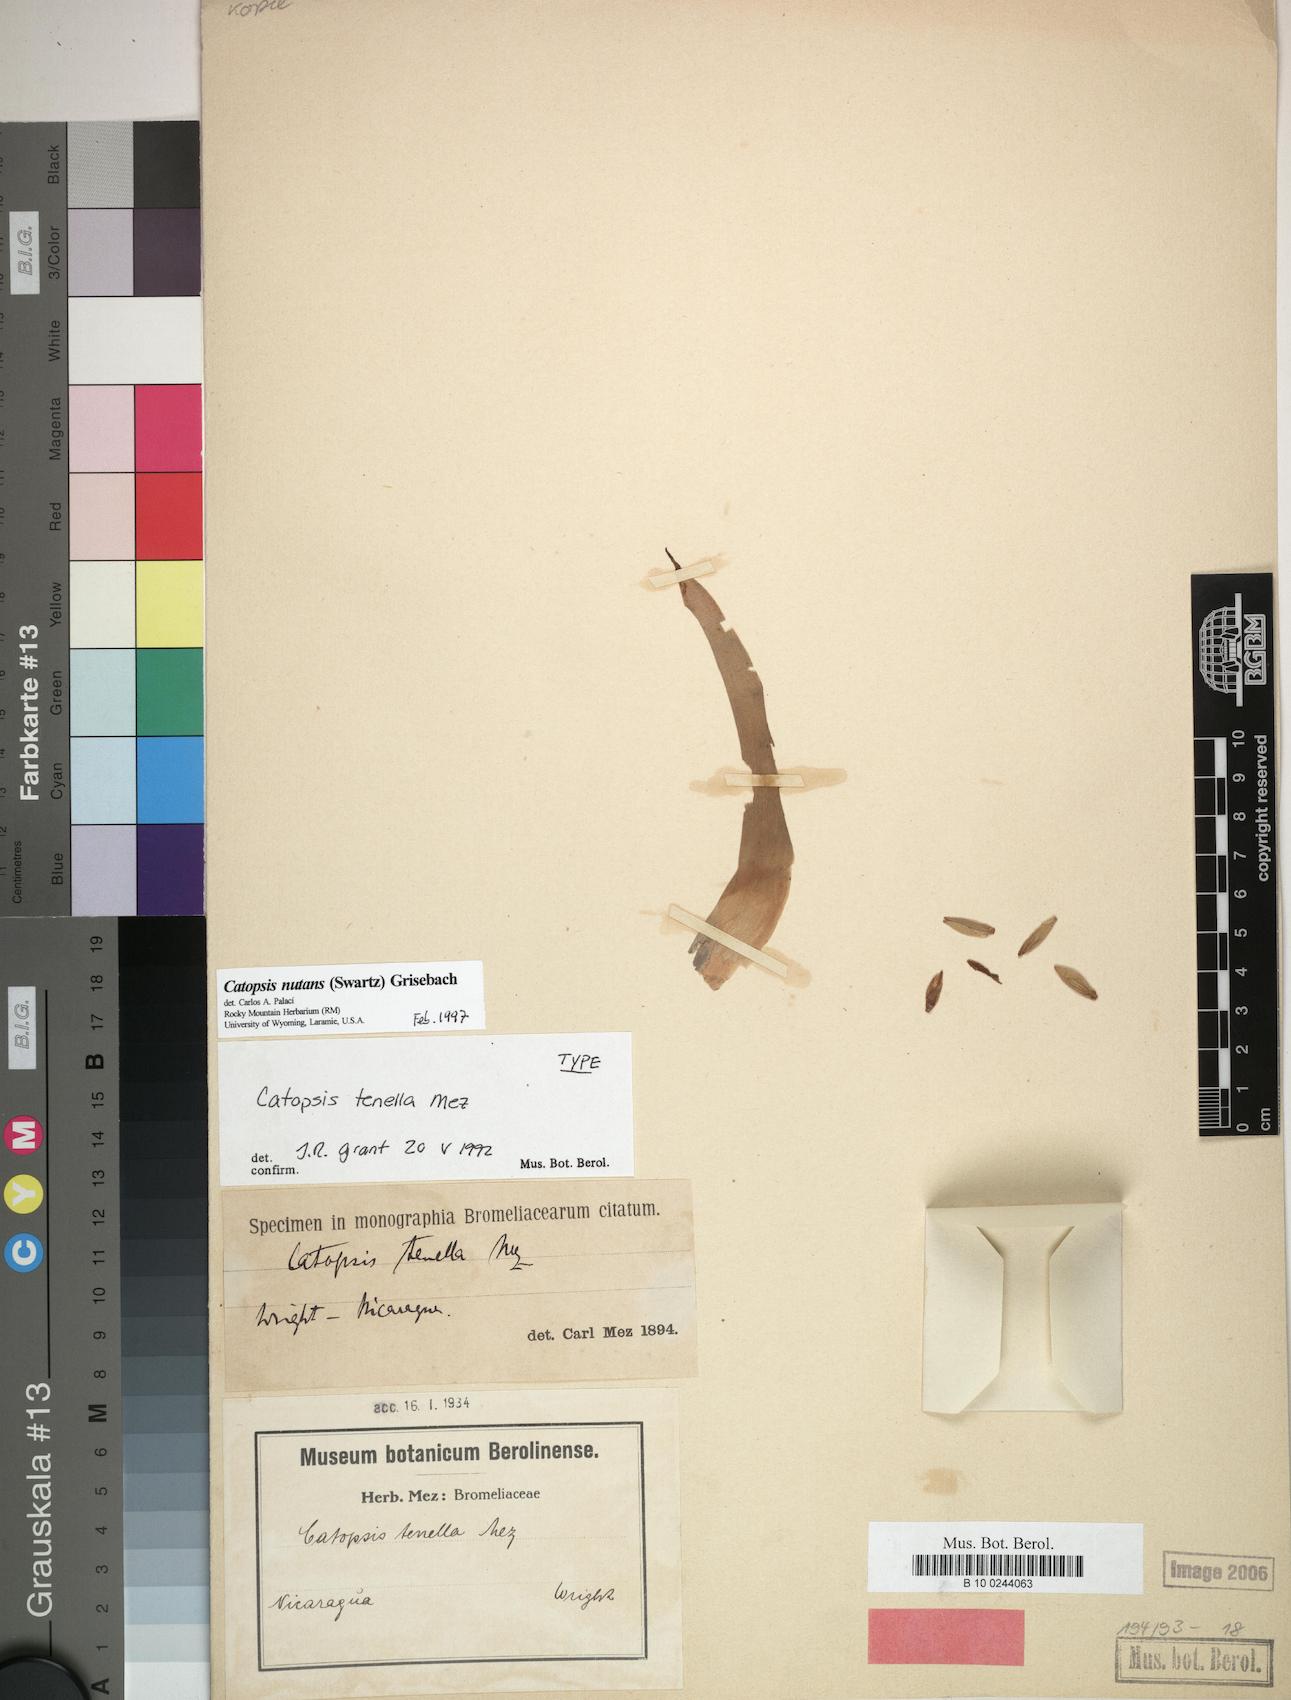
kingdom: Plantae
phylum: Tracheophyta
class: Liliopsida
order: Poales
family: Bromeliaceae
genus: Catopsis
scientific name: Catopsis nutans
